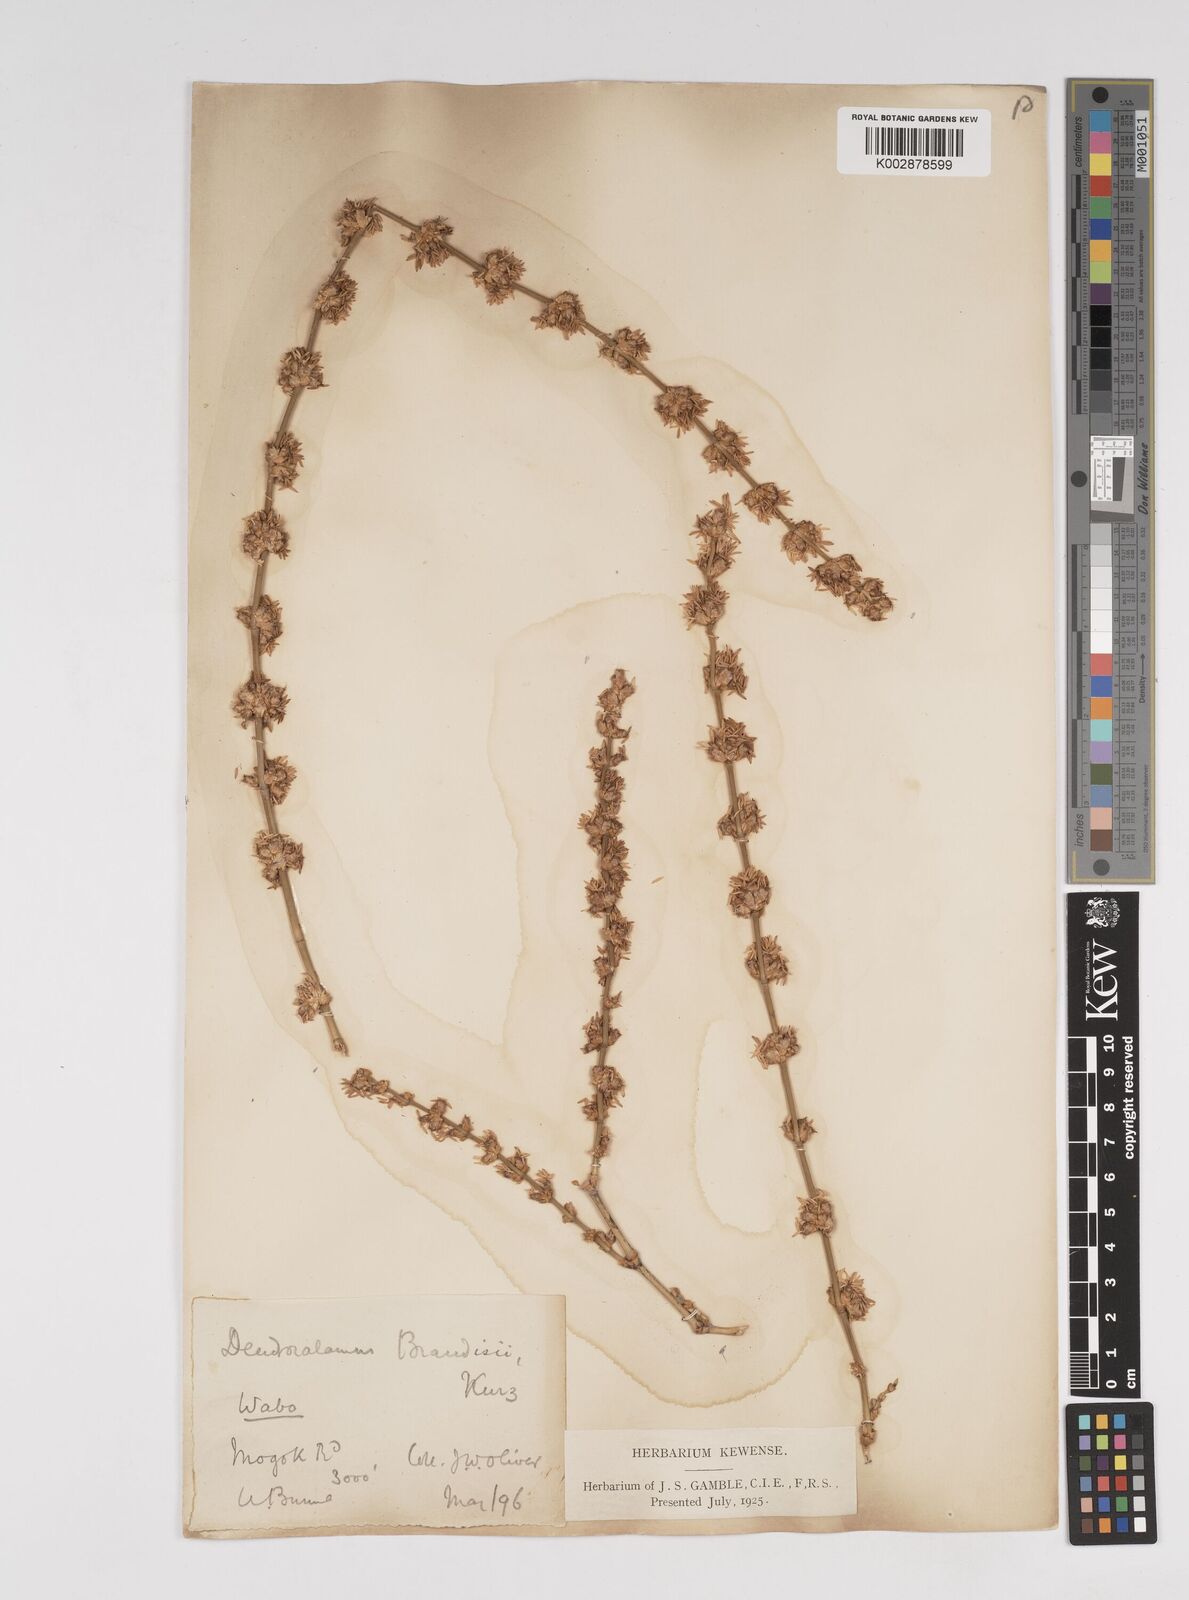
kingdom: Plantae
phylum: Tracheophyta
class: Liliopsida
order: Poales
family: Poaceae
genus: Dendrocalamus
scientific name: Dendrocalamus brandisii
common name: Velvetleaf bamboo
